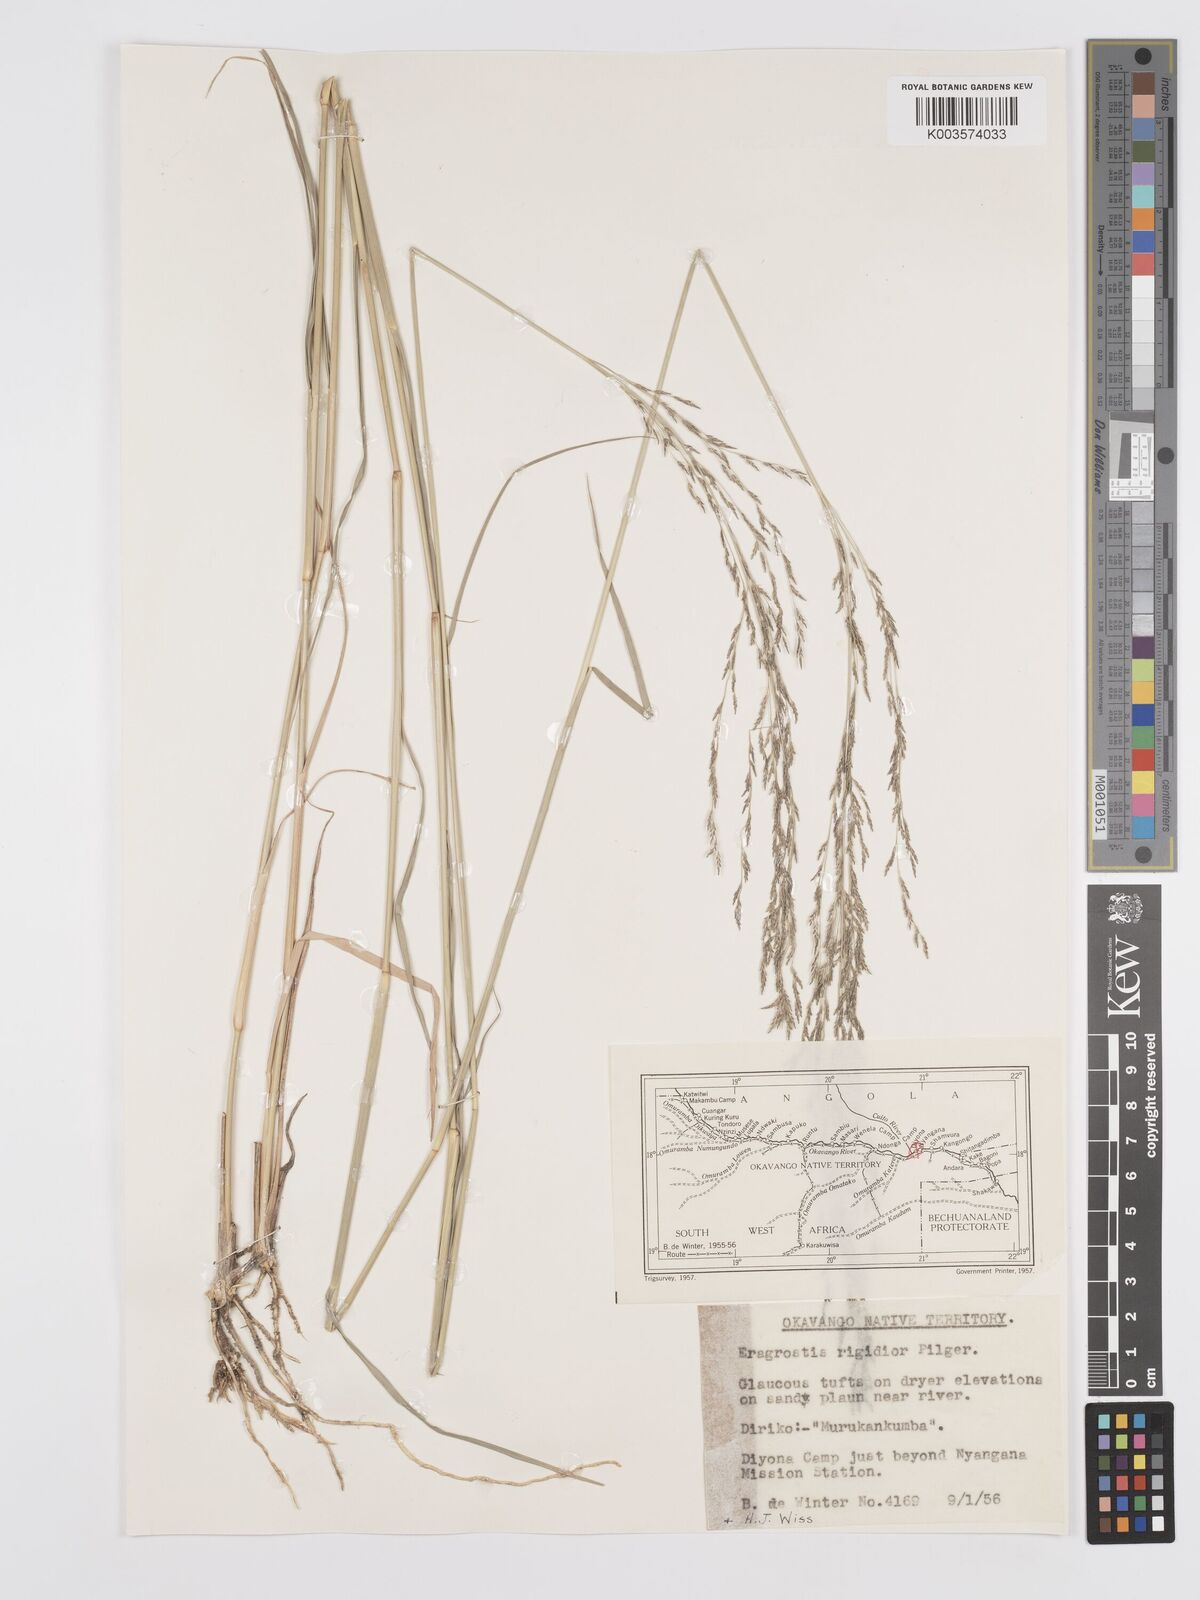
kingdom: Plantae
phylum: Tracheophyta
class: Liliopsida
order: Poales
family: Poaceae
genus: Eragrostis
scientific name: Eragrostis cylindriflora
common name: Cylinderflower lovegrass
